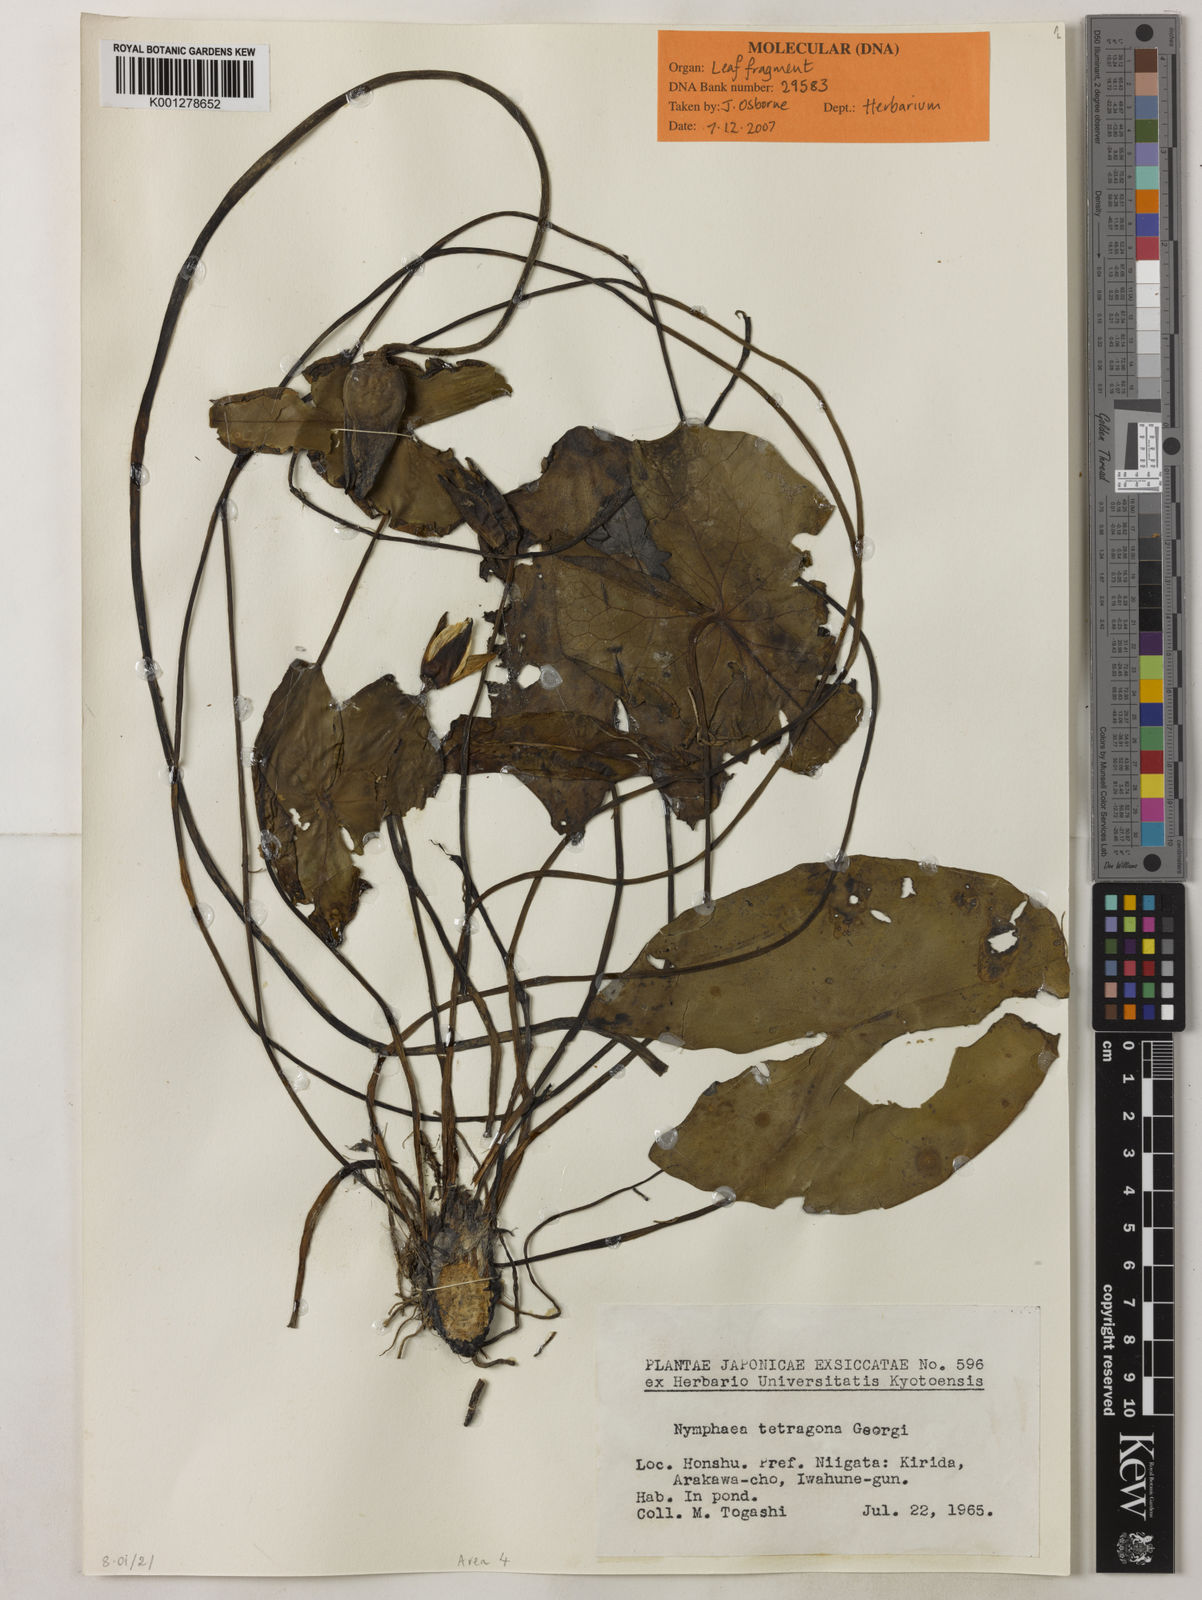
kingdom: Plantae
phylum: Tracheophyta
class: Magnoliopsida
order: Nymphaeales
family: Nymphaeaceae
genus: Nymphaea
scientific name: Nymphaea tetragona
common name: Pygmy water-lily
